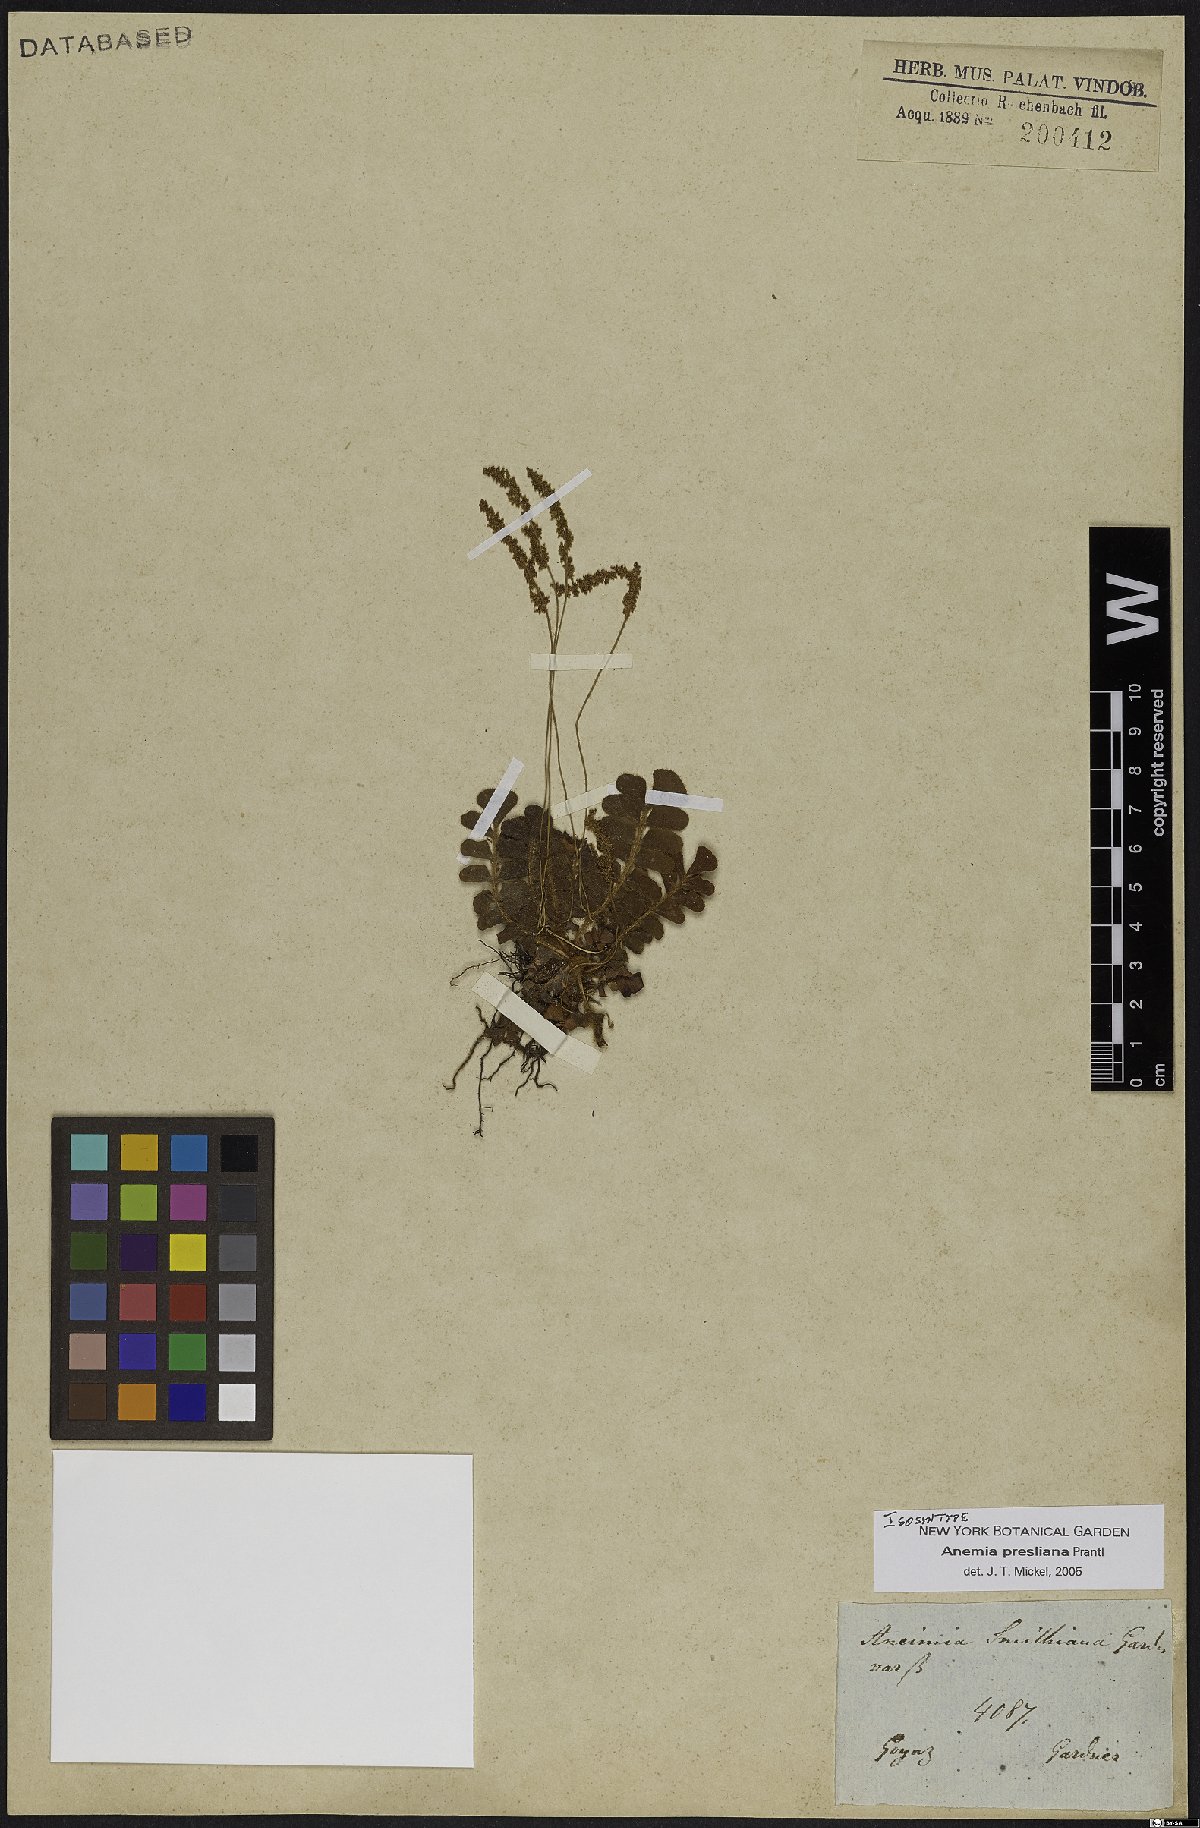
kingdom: Plantae
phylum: Tracheophyta
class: Polypodiopsida
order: Schizaeales
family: Anemiaceae
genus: Anemia
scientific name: Anemia presliana
